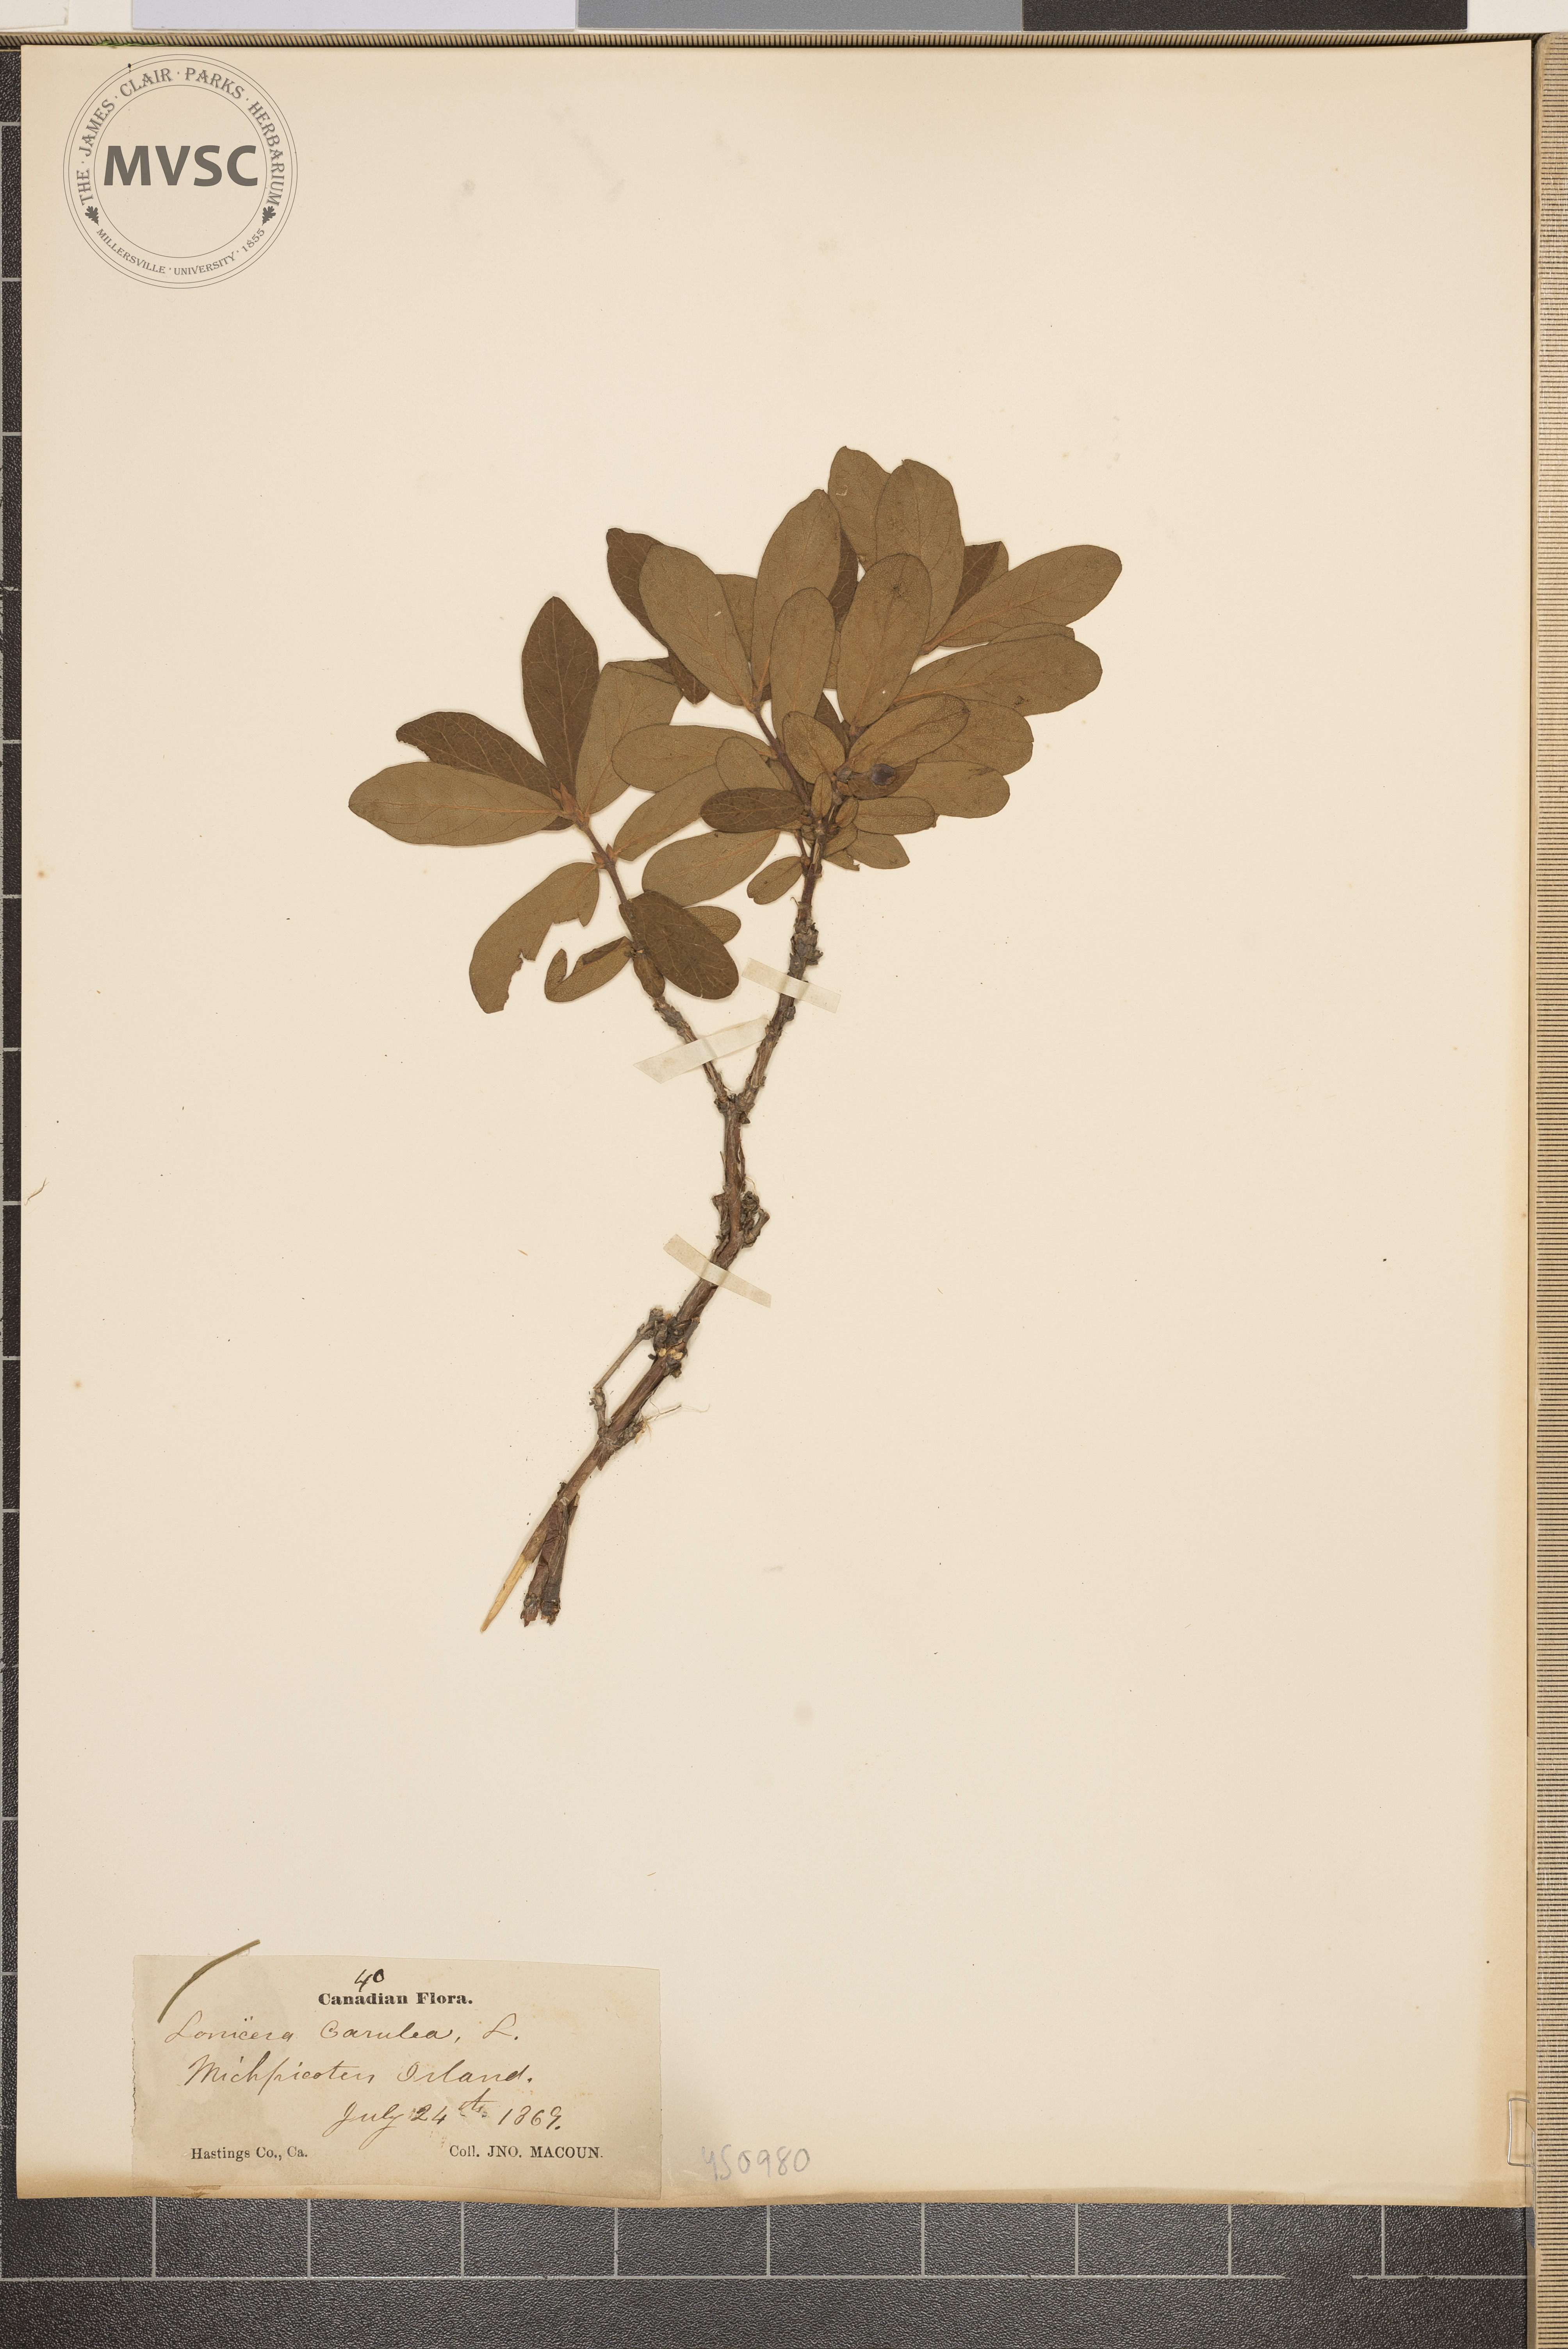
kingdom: Plantae
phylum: Tracheophyta
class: Magnoliopsida
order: Dipsacales
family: Caprifoliaceae
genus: Lonicera
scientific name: Lonicera caerulea
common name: Blue honeysuckle
